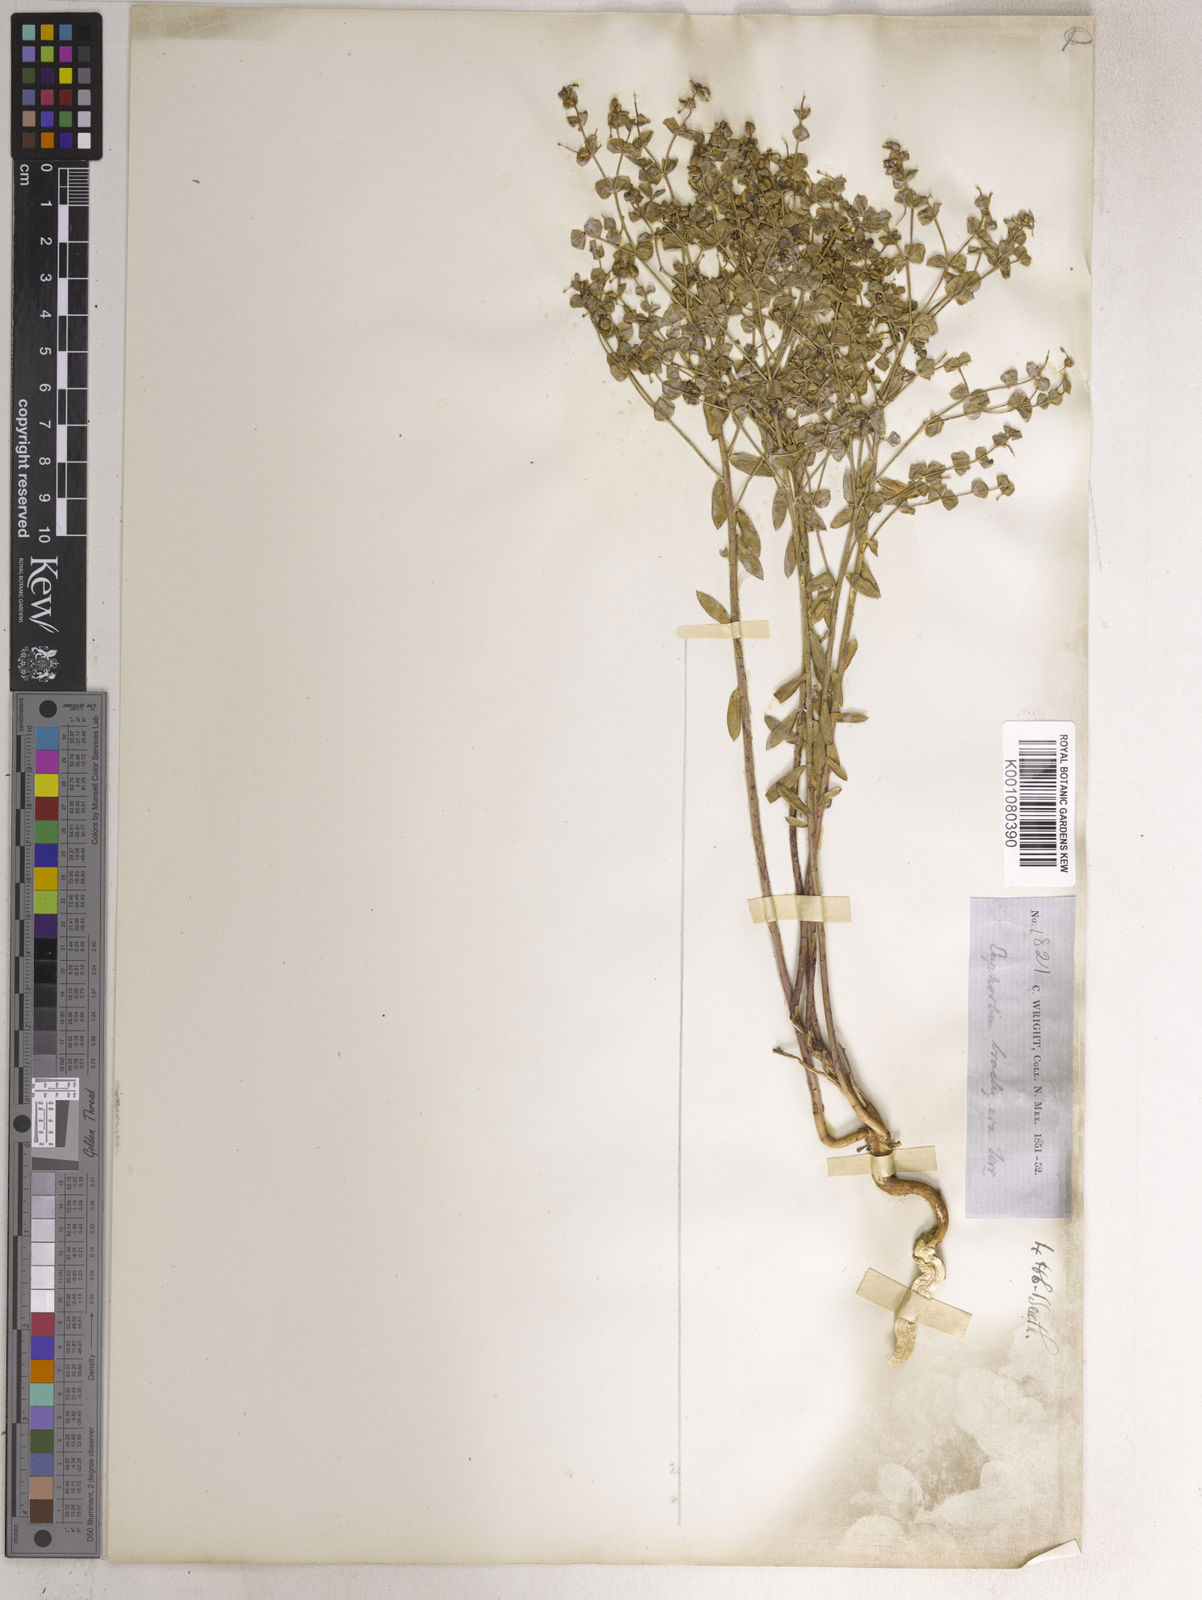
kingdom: Plantae
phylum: Tracheophyta
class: Magnoliopsida
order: Malpighiales
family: Euphorbiaceae
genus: Euphorbia
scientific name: Euphorbia
